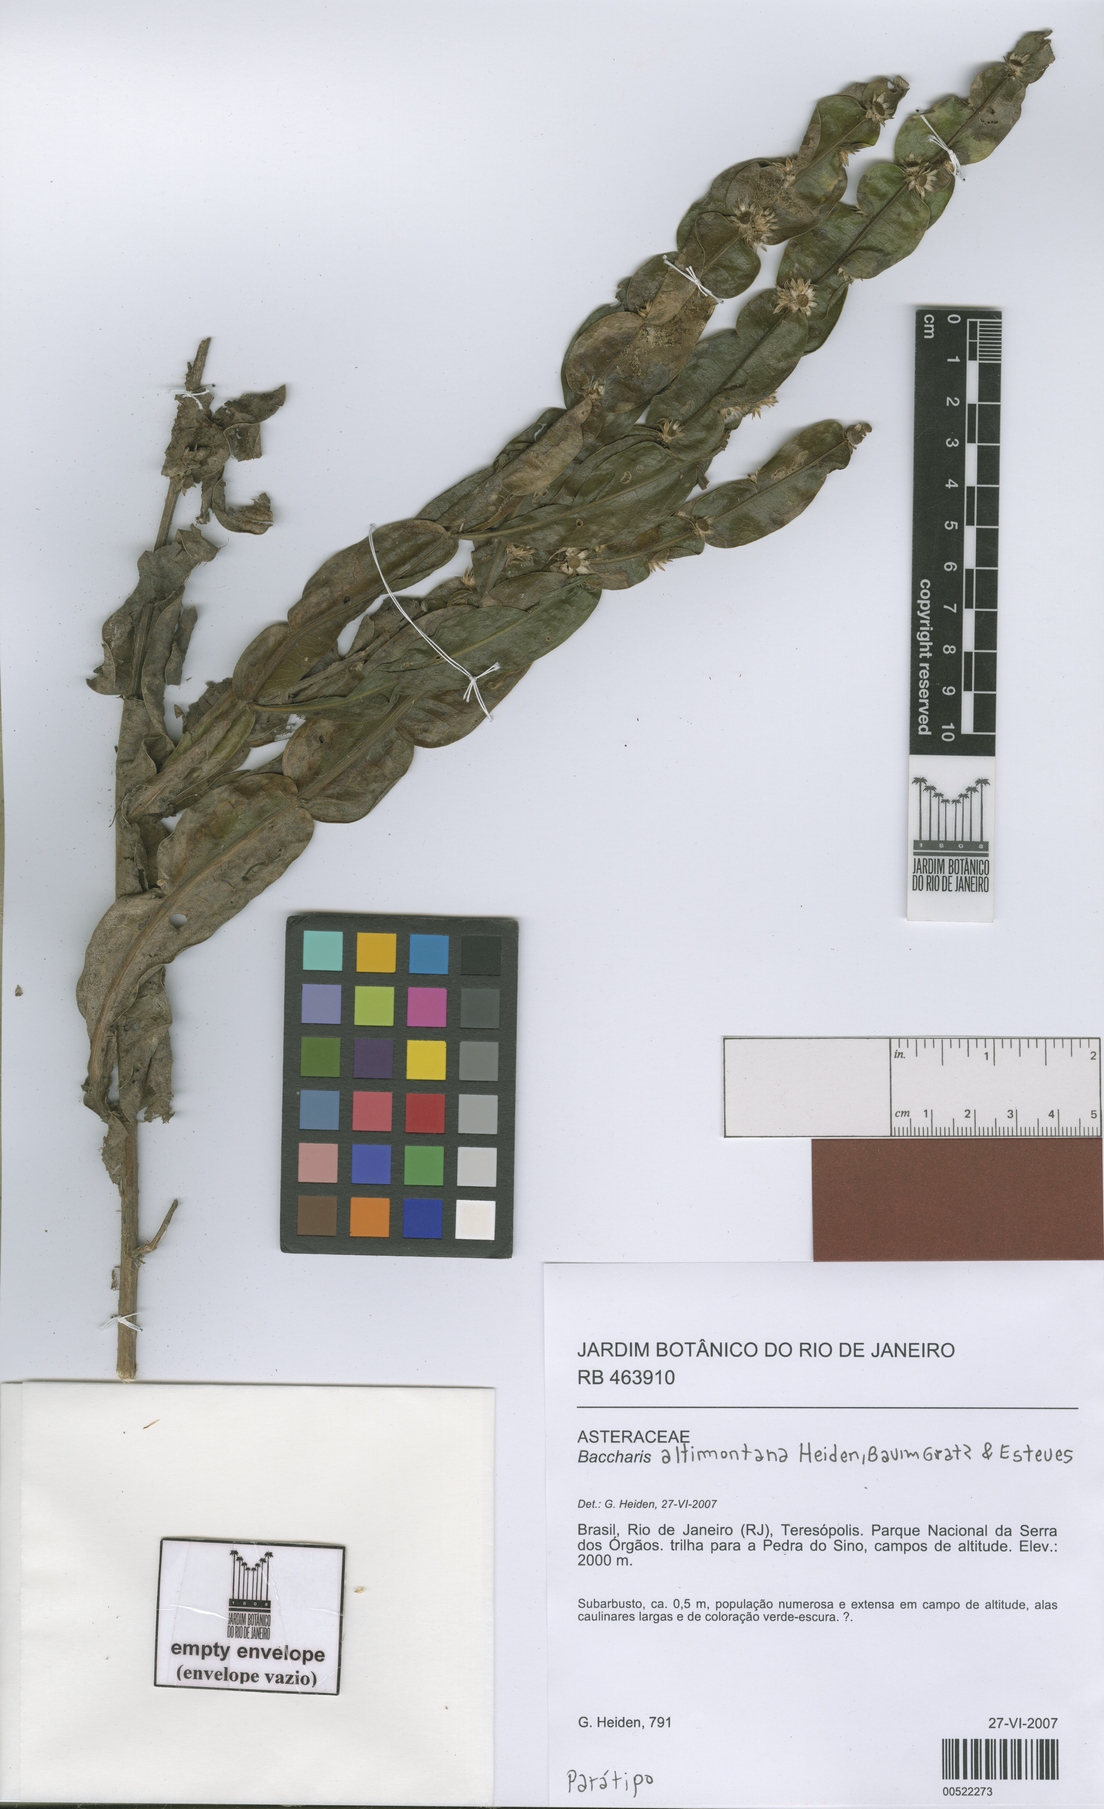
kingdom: Plantae
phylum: Tracheophyta
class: Magnoliopsida
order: Asterales
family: Asteraceae
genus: Baccharis
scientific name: Baccharis altimontana
